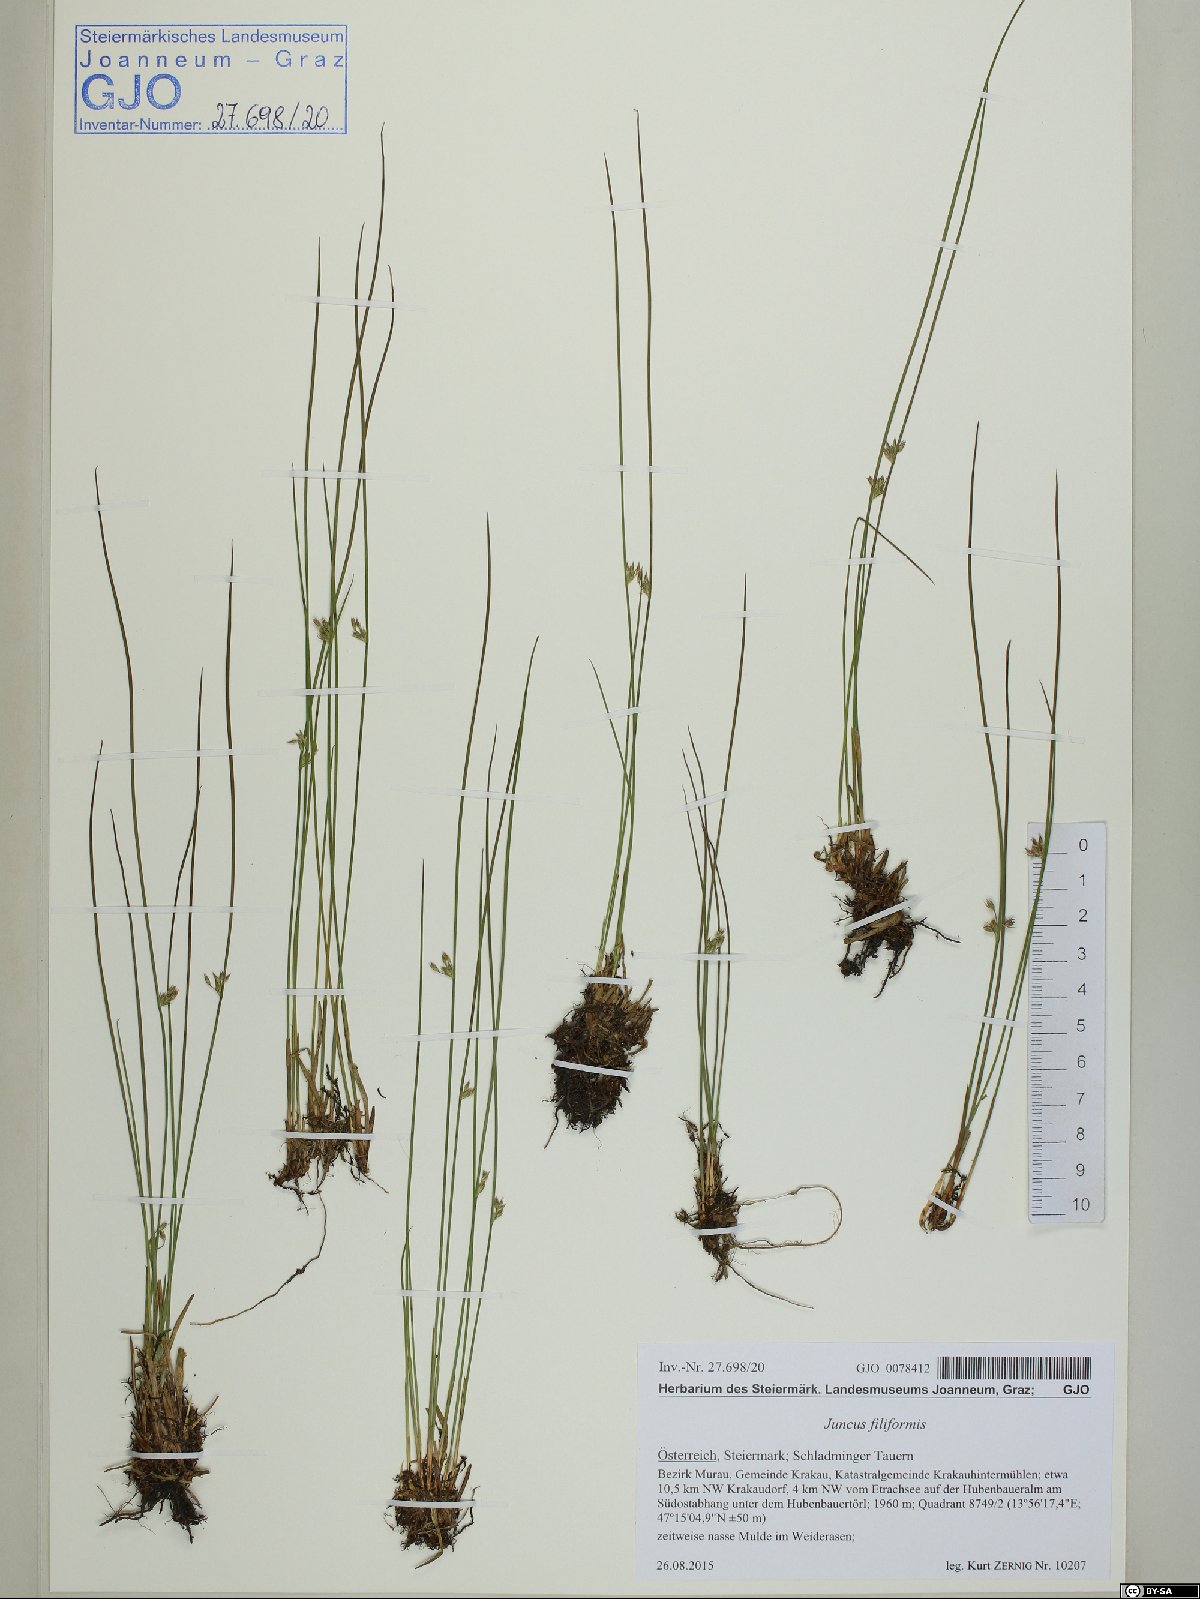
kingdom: Plantae
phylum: Tracheophyta
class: Liliopsida
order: Poales
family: Juncaceae
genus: Juncus
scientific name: Juncus filiformis
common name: Thread rush
